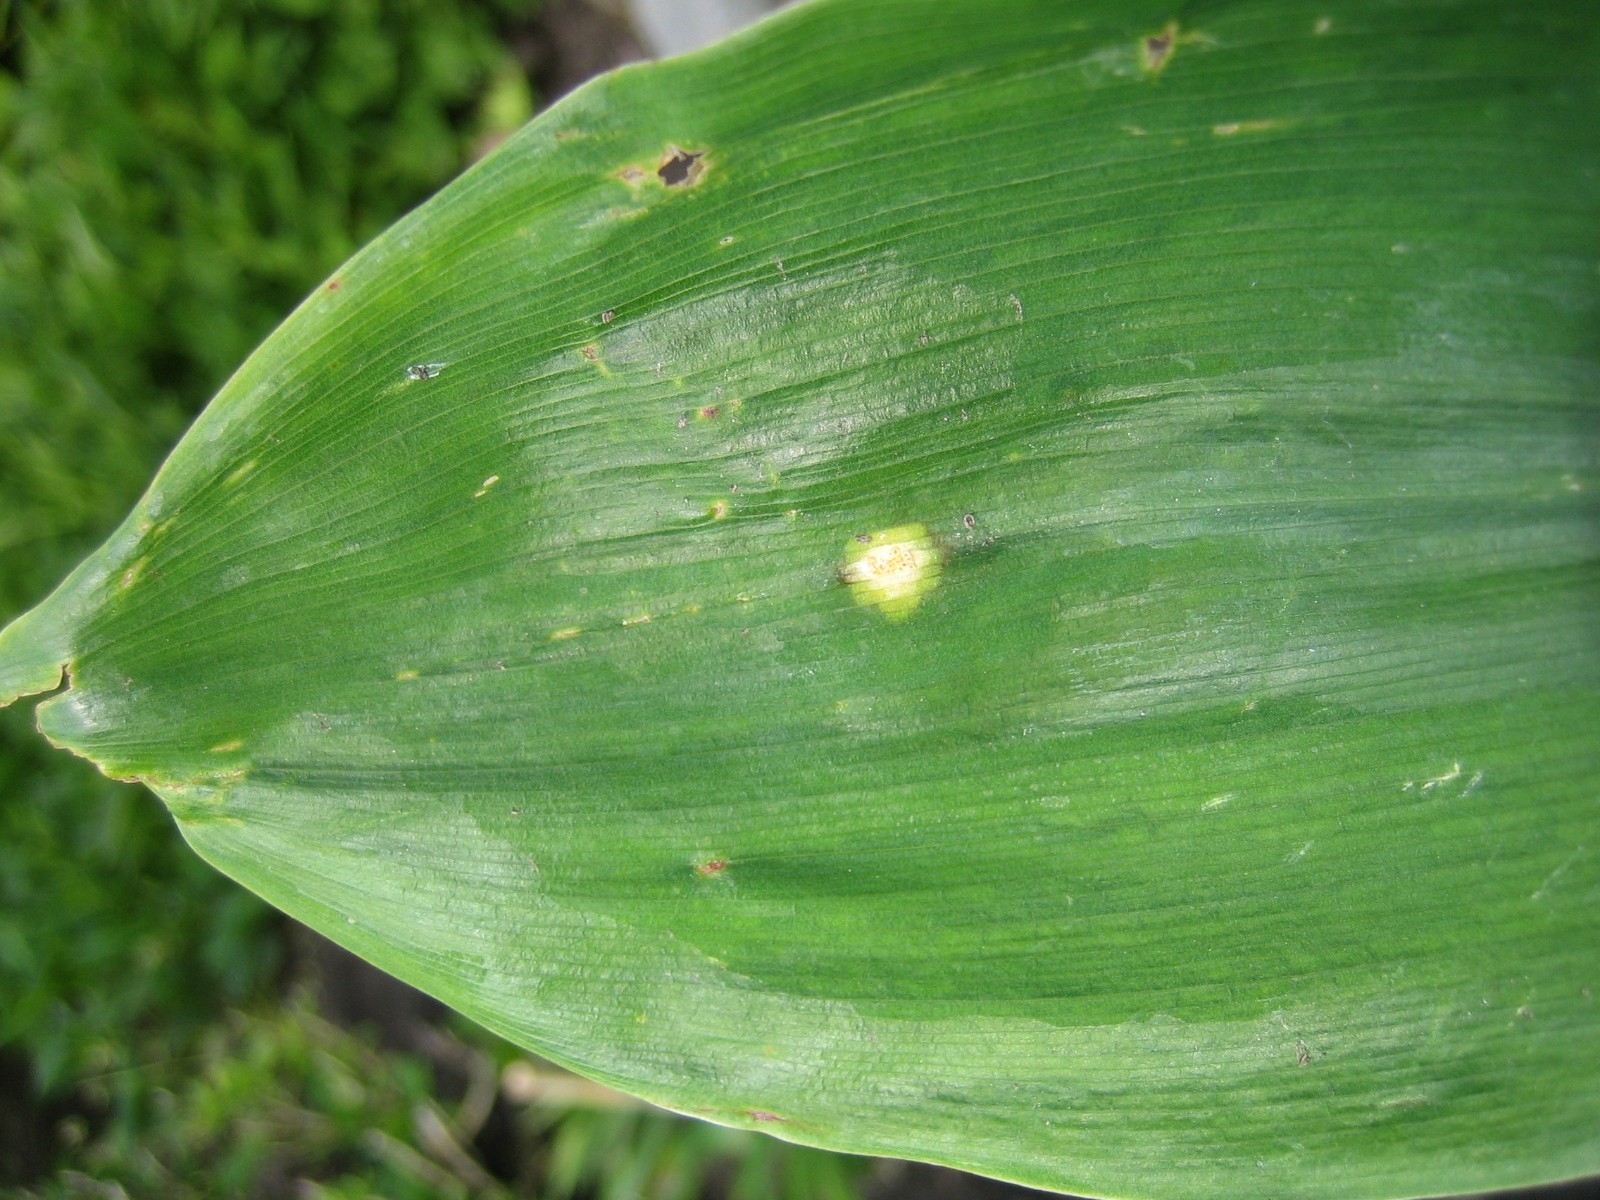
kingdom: Fungi
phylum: Basidiomycota
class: Pucciniomycetes
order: Pucciniales
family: Pucciniaceae
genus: Puccinia
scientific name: Puccinia sessilis
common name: Arum rust
